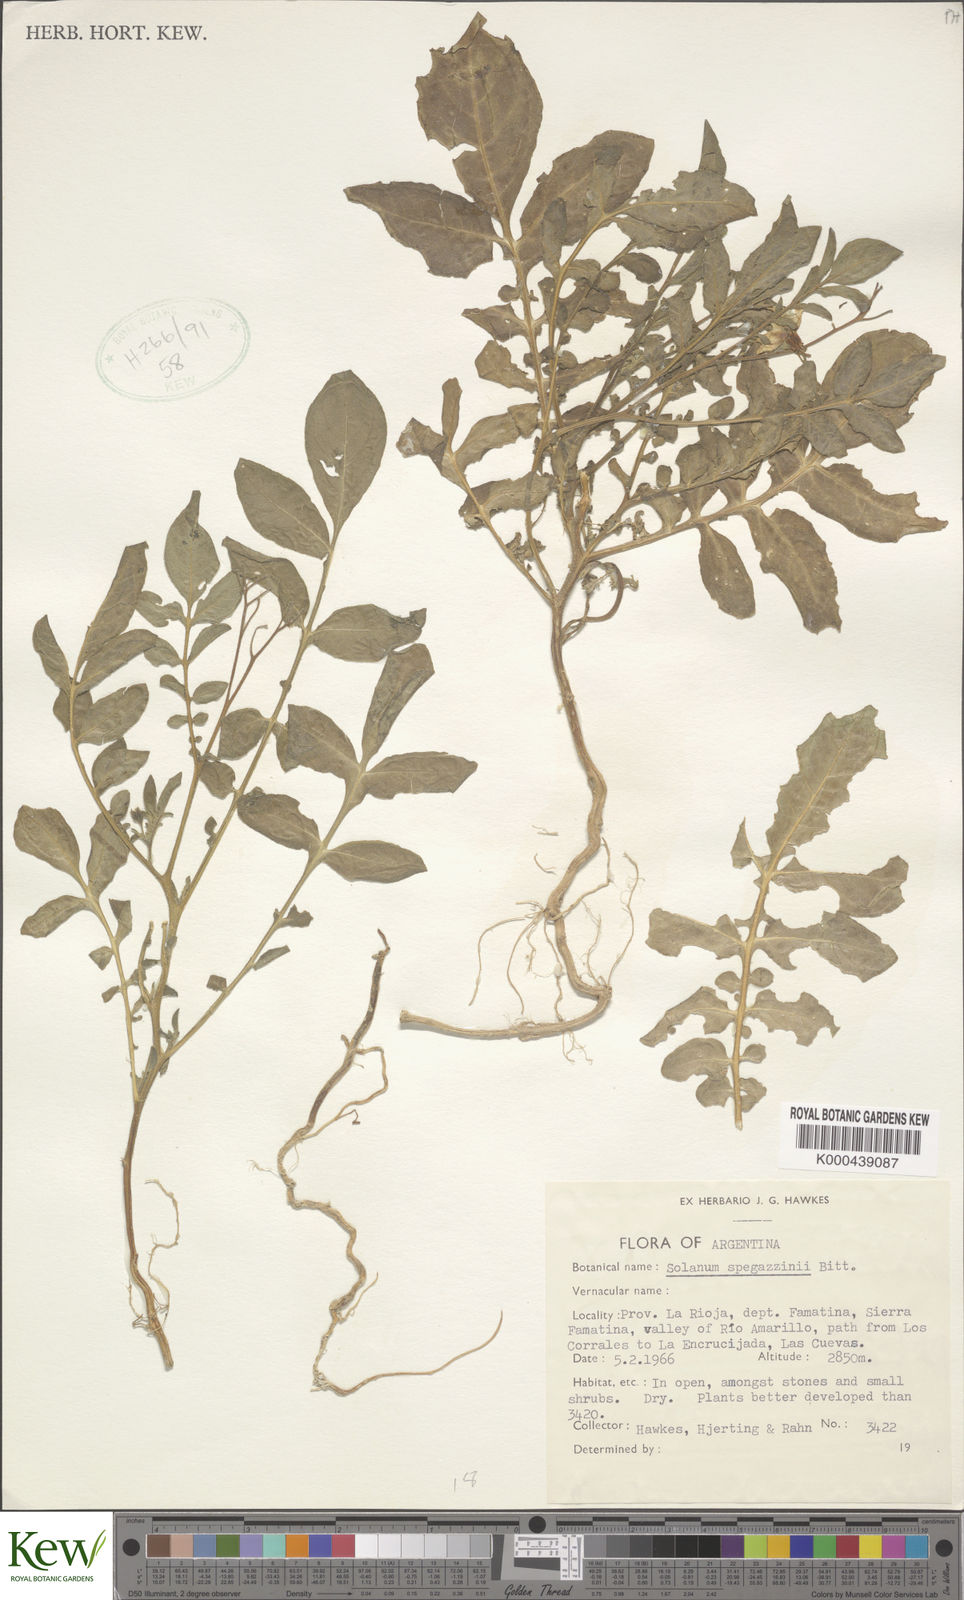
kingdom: Plantae
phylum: Tracheophyta
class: Magnoliopsida
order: Solanales
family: Solanaceae
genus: Solanum
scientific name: Solanum brevicaule
